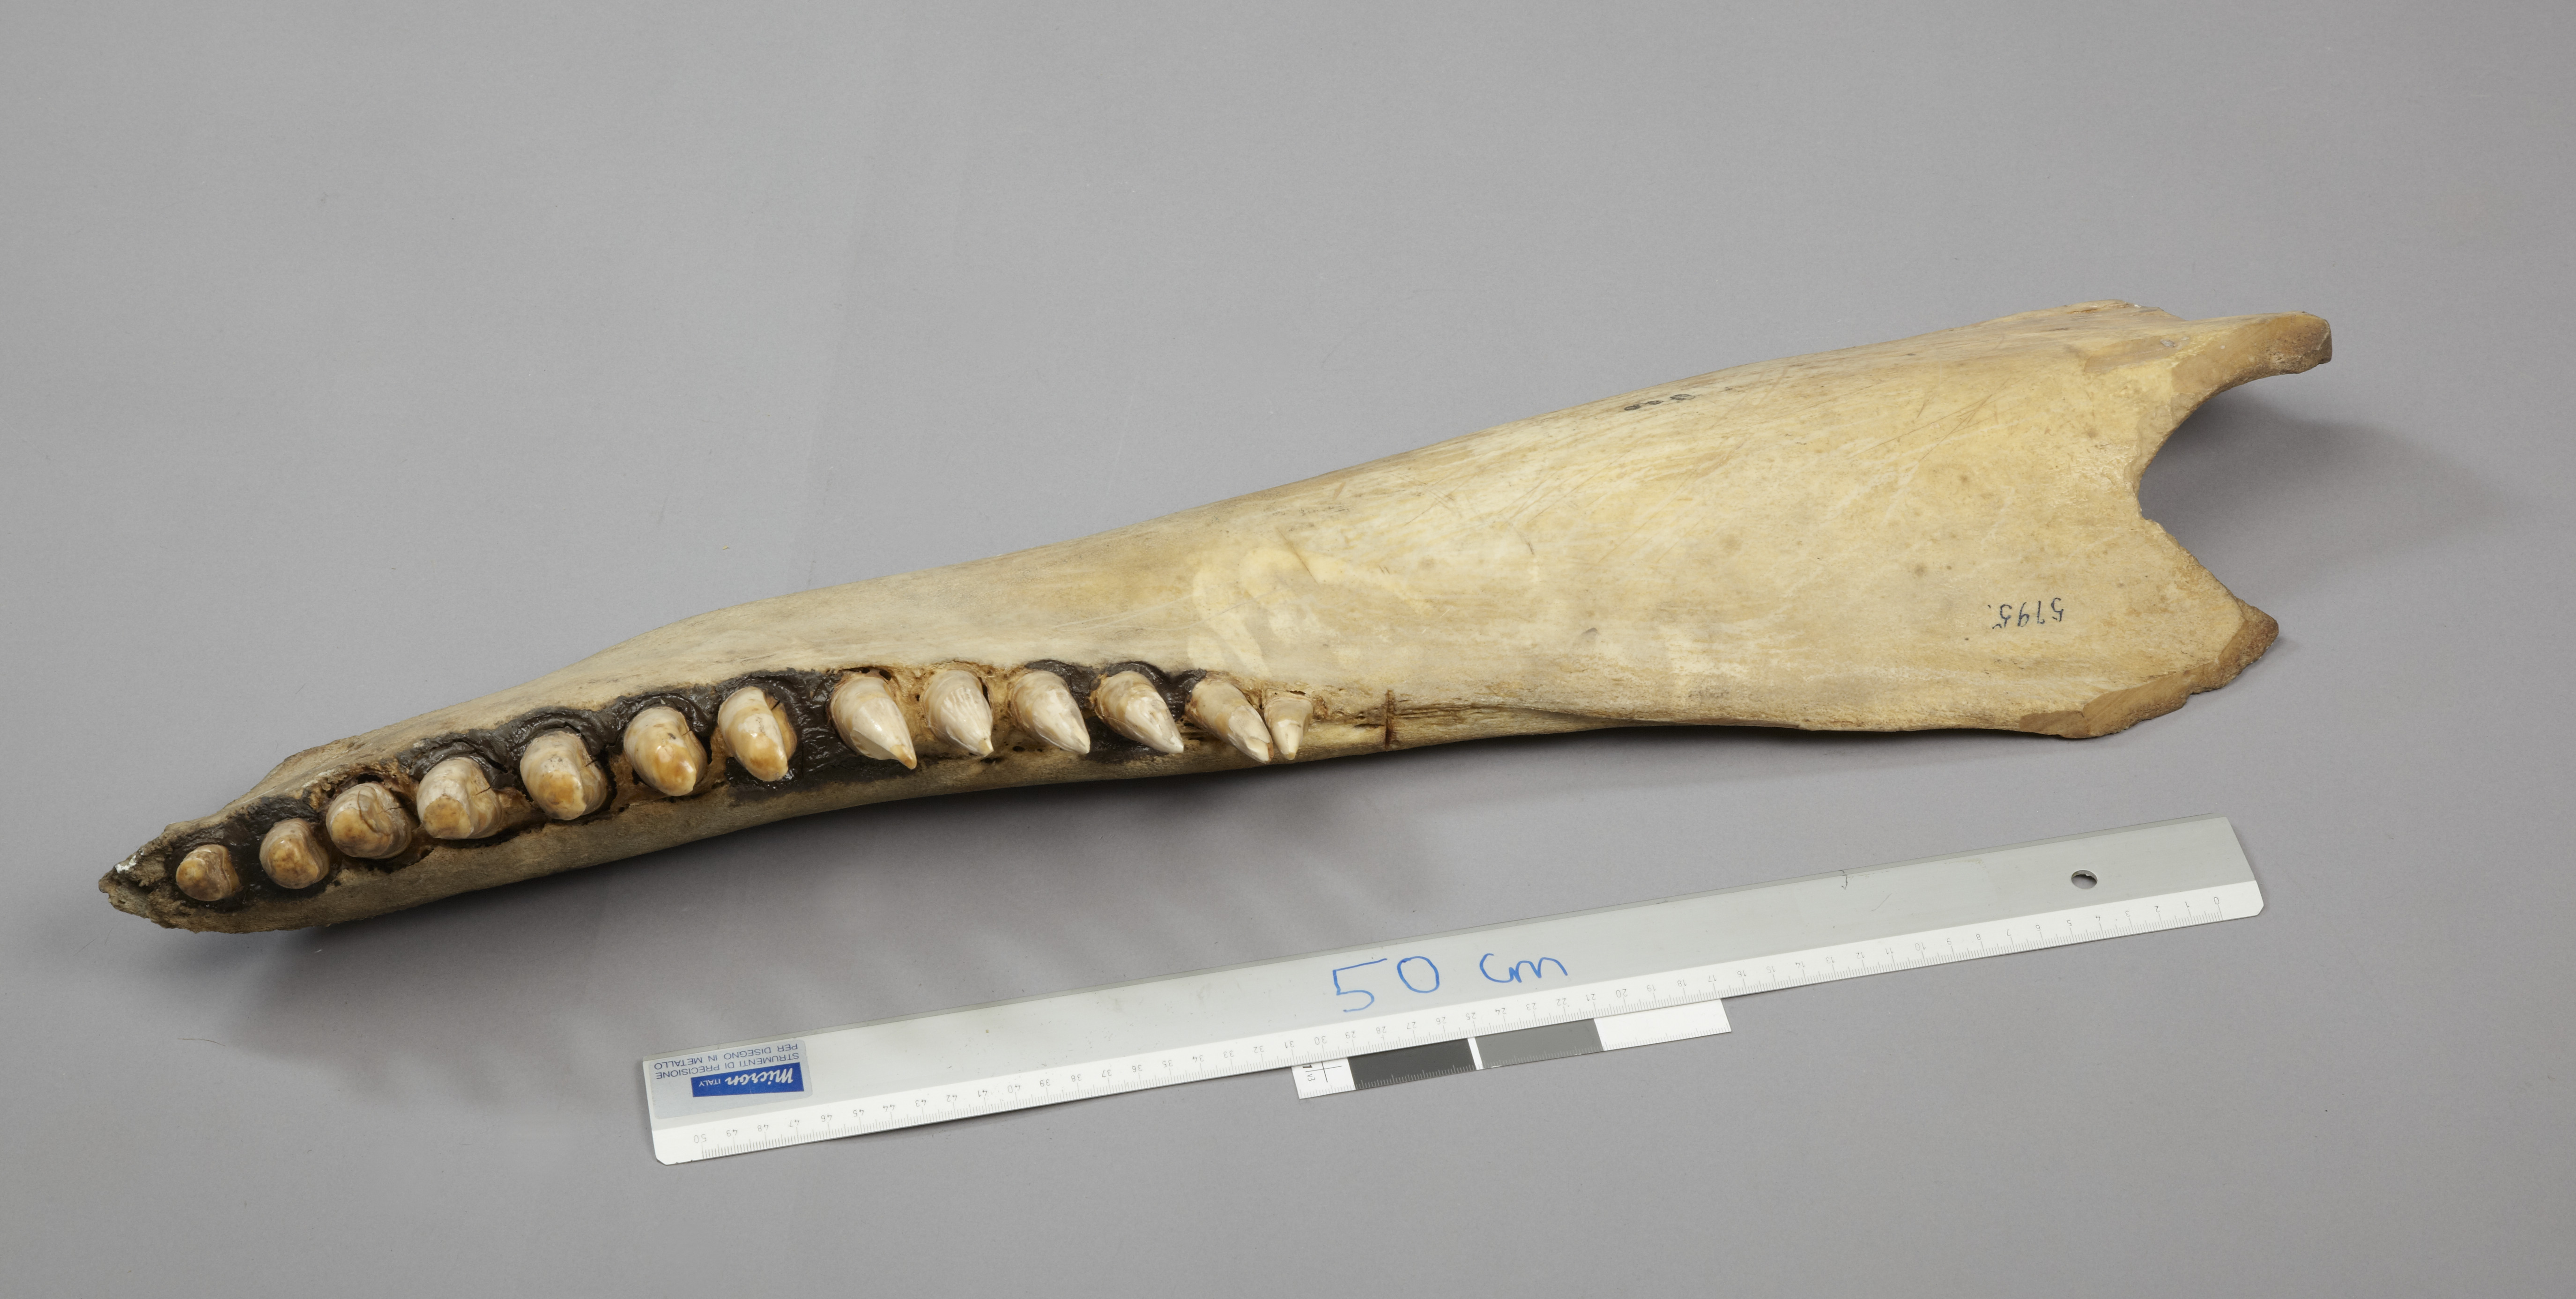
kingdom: Animalia
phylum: Chordata
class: Mammalia
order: Cetacea
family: Delphinidae
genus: Orcinus
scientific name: Orcinus orca
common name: Killer whale
